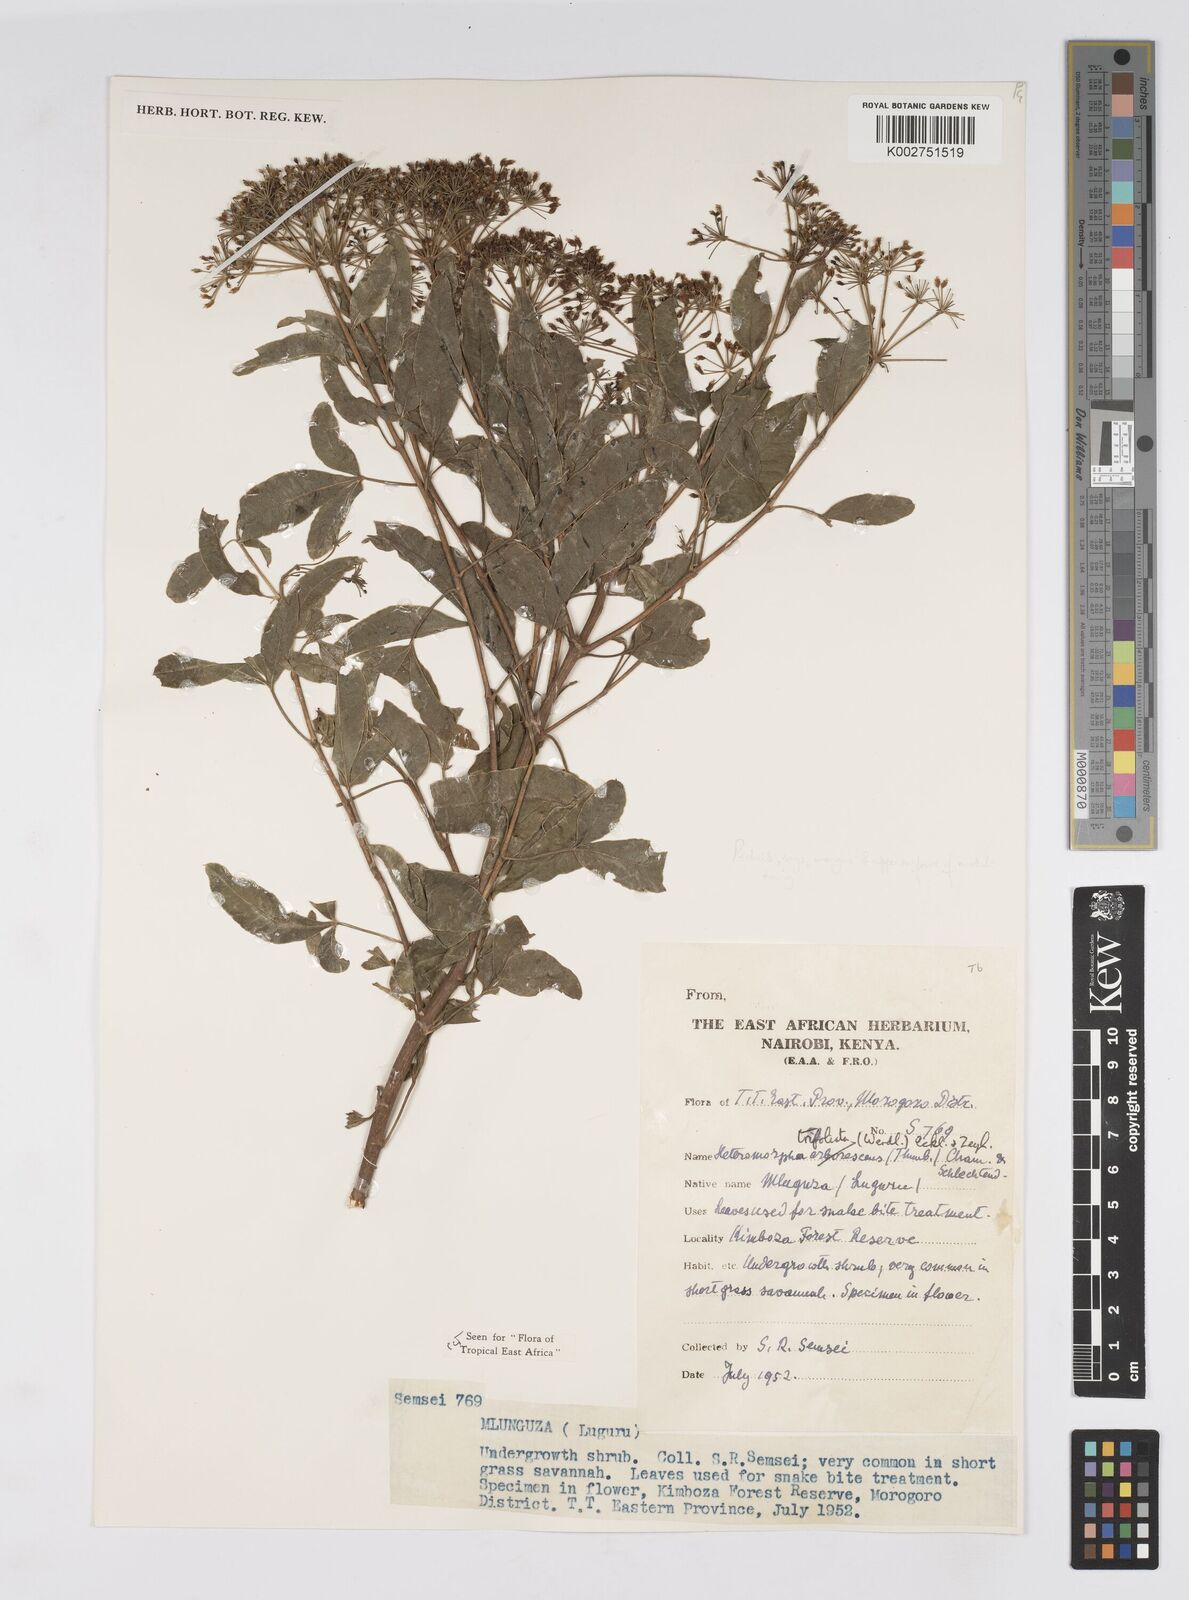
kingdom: Plantae
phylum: Tracheophyta
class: Magnoliopsida
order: Apiales
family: Apiaceae
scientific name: Apiaceae
